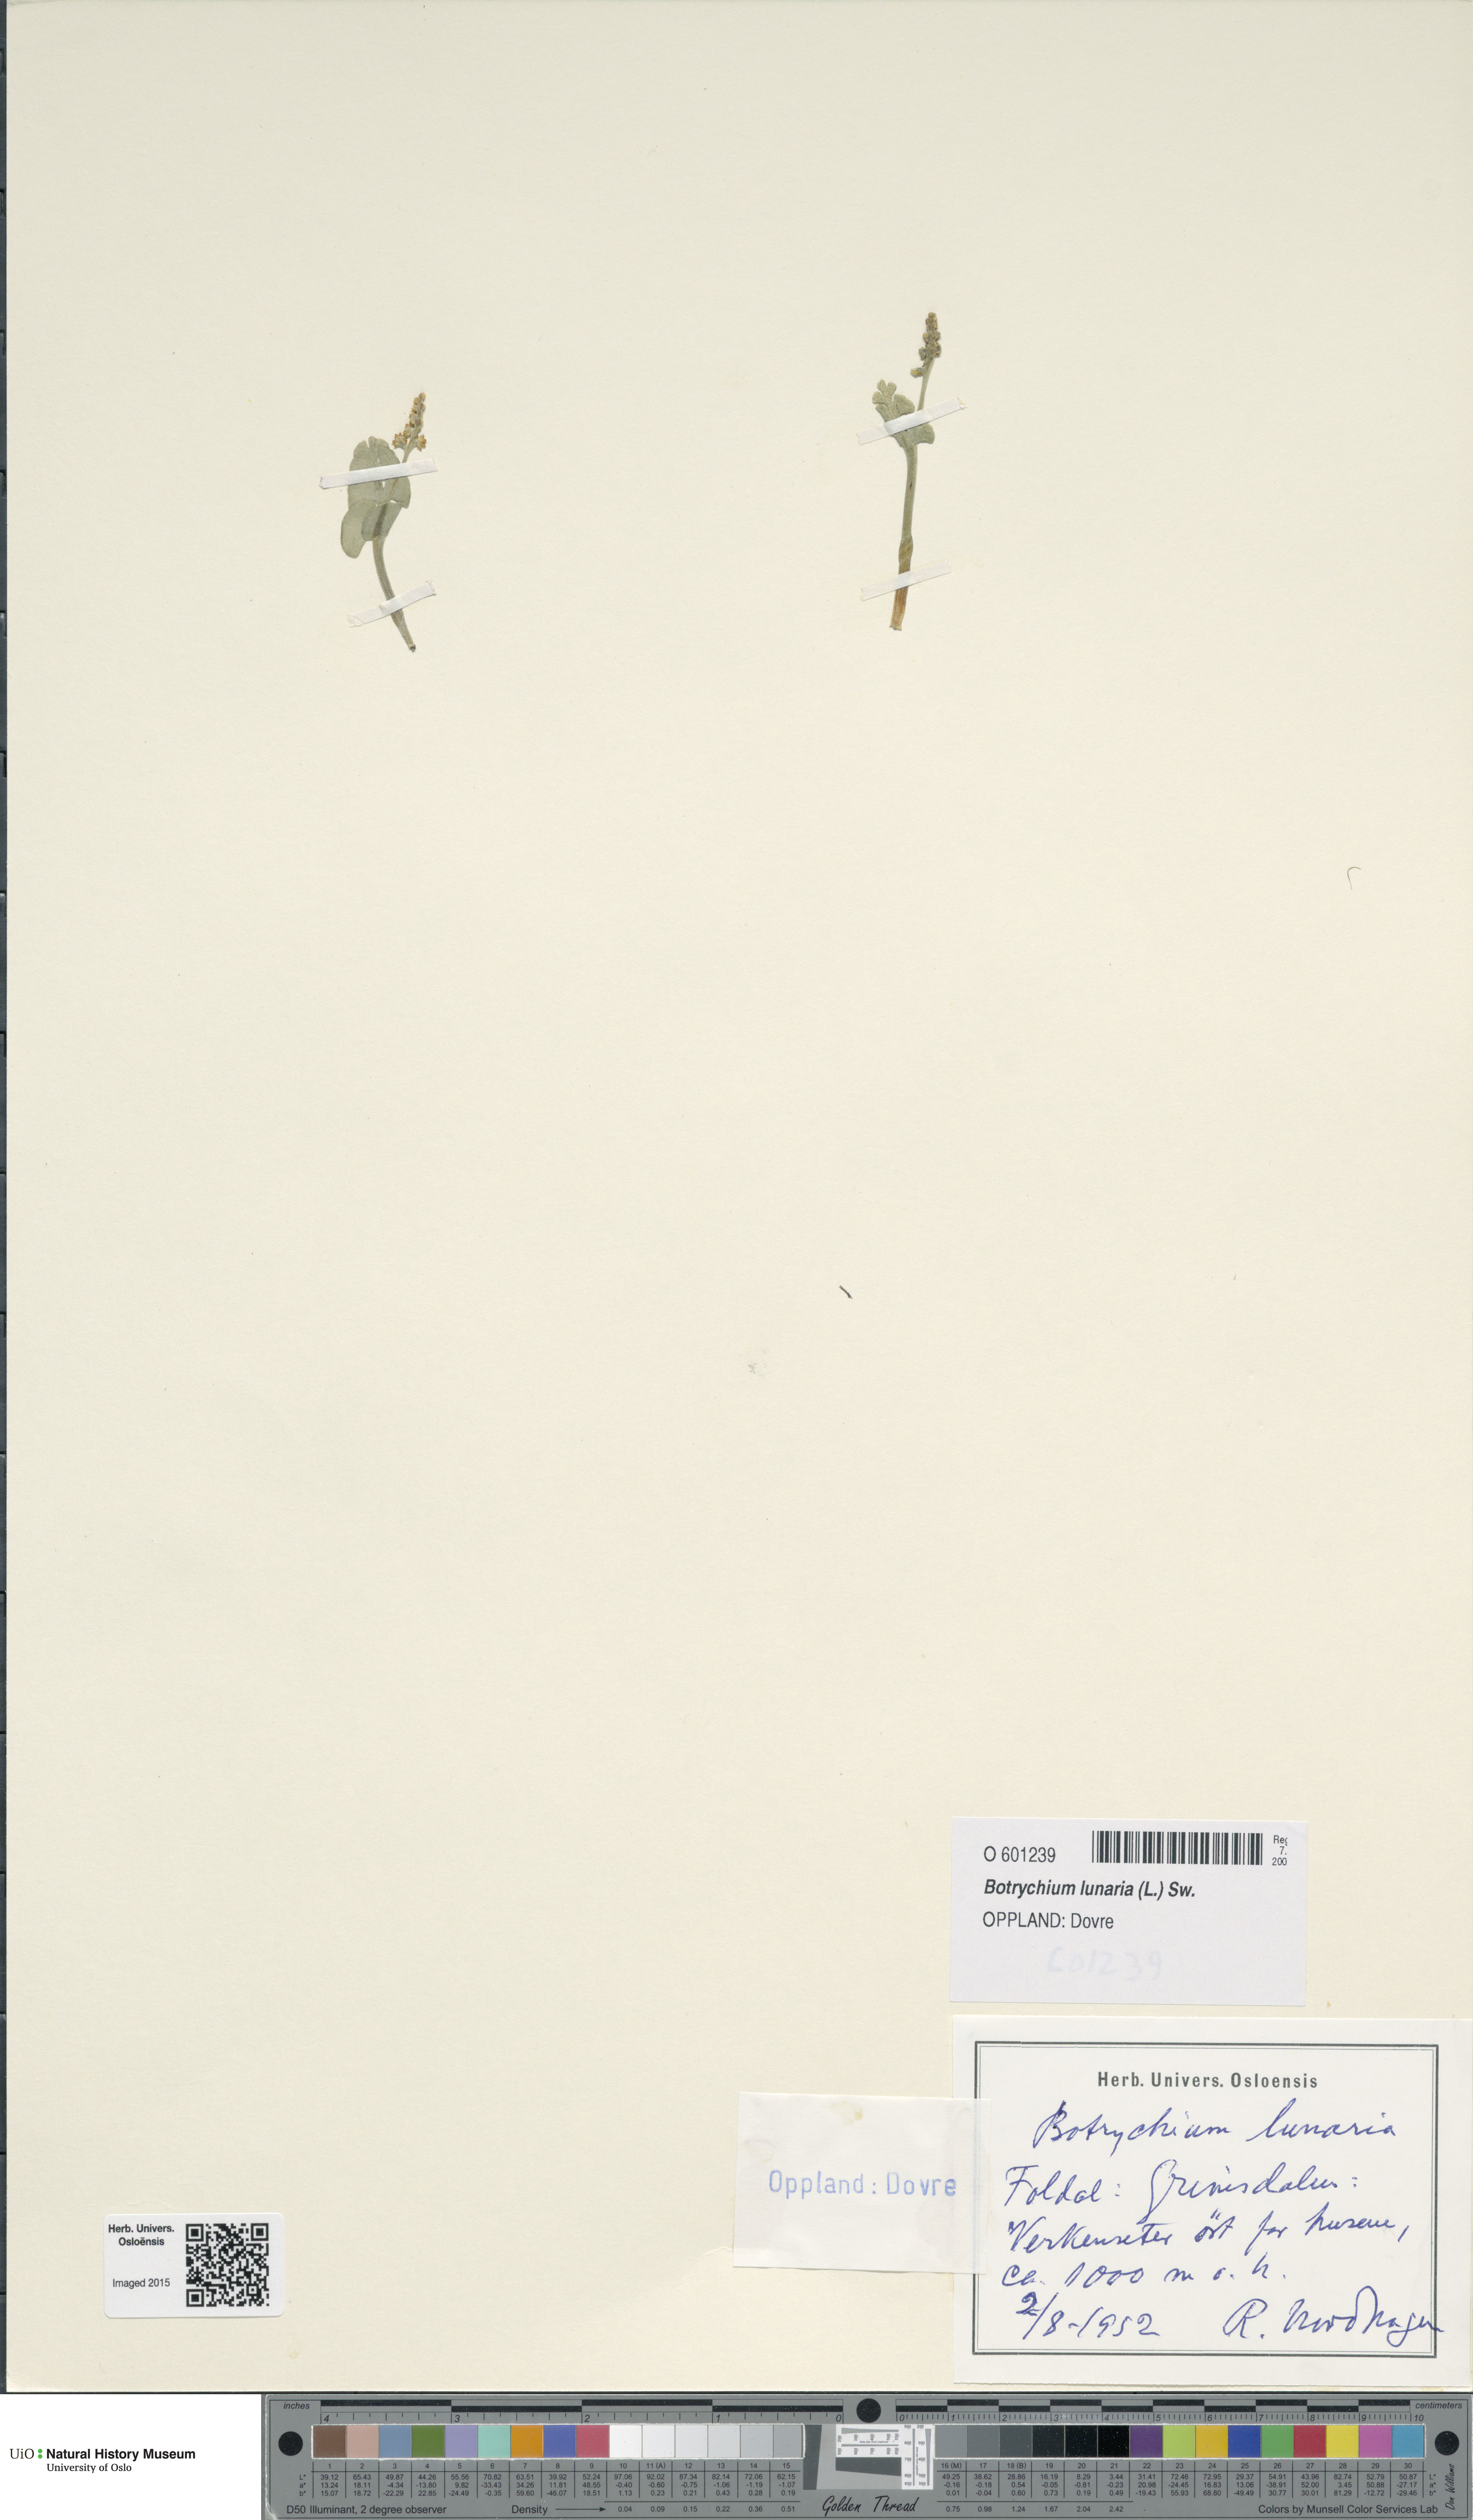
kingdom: Plantae
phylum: Tracheophyta
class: Polypodiopsida
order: Ophioglossales
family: Ophioglossaceae
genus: Botrychium
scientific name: Botrychium lunaria
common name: Moonwort
